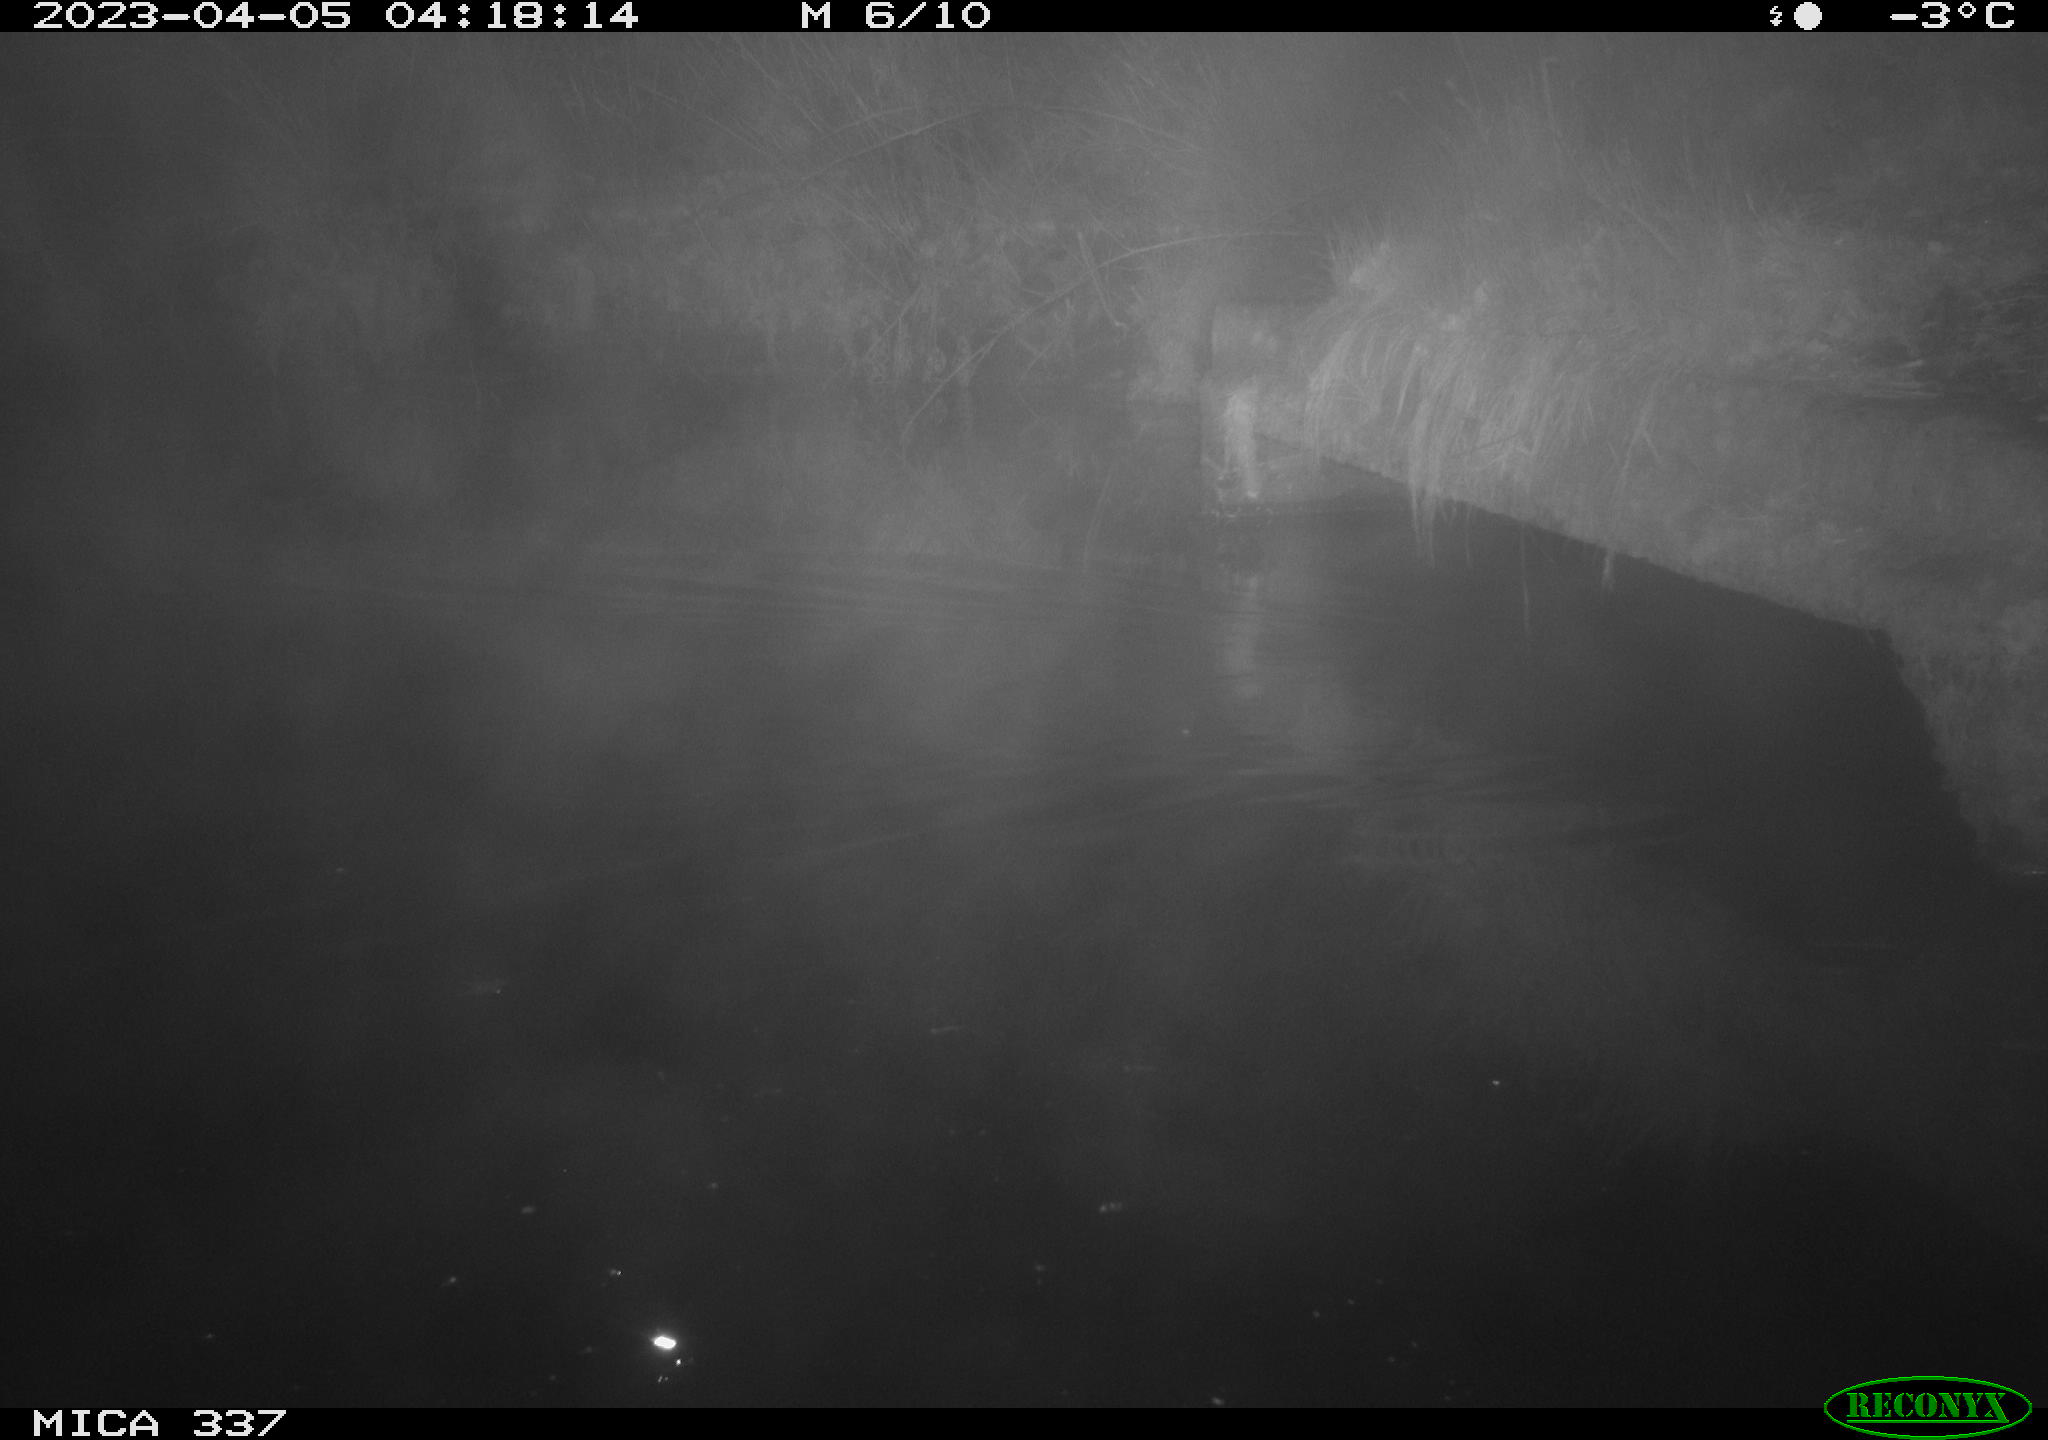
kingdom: Animalia
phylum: Chordata
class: Aves
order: Anseriformes
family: Anatidae
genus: Anas
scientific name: Anas
